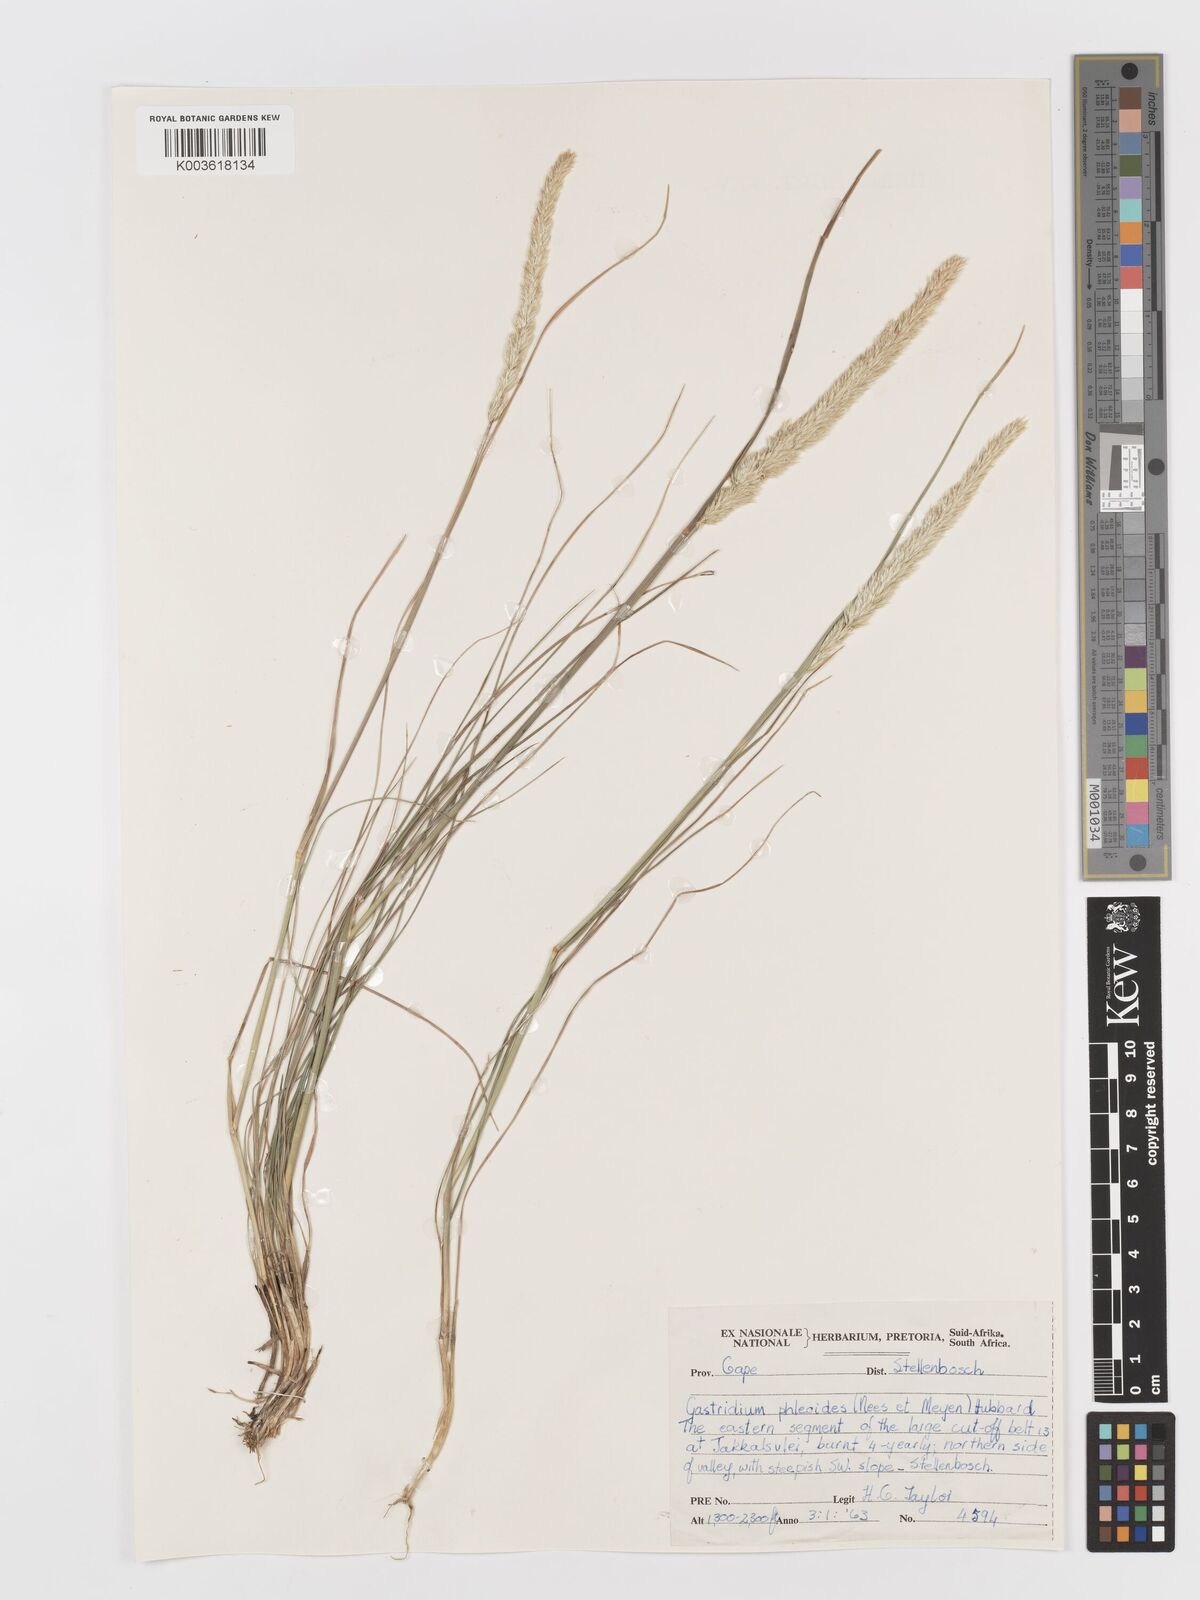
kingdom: Plantae
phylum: Tracheophyta
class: Liliopsida
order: Poales
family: Poaceae
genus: Koeleria
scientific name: Koeleria capensis
